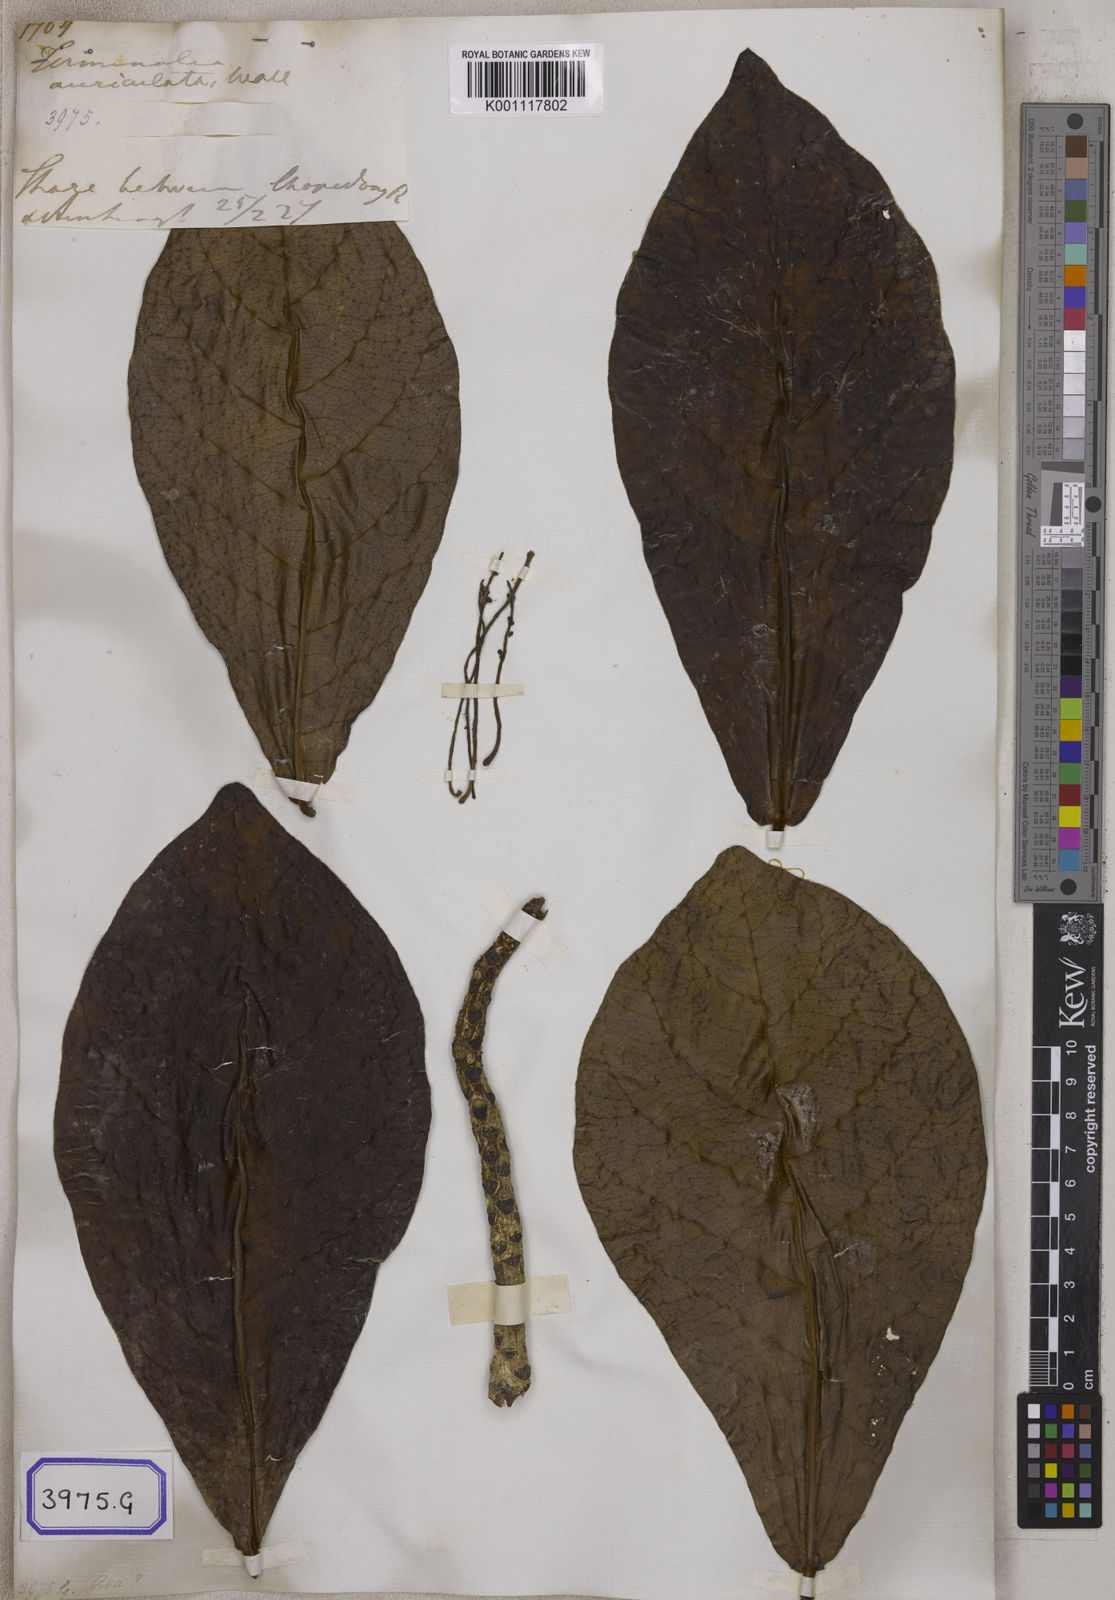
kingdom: Plantae
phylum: Tracheophyta
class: Magnoliopsida
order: Myrtales
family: Combretaceae
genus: Terminalia
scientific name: Terminalia catappa
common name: Tropical almond
